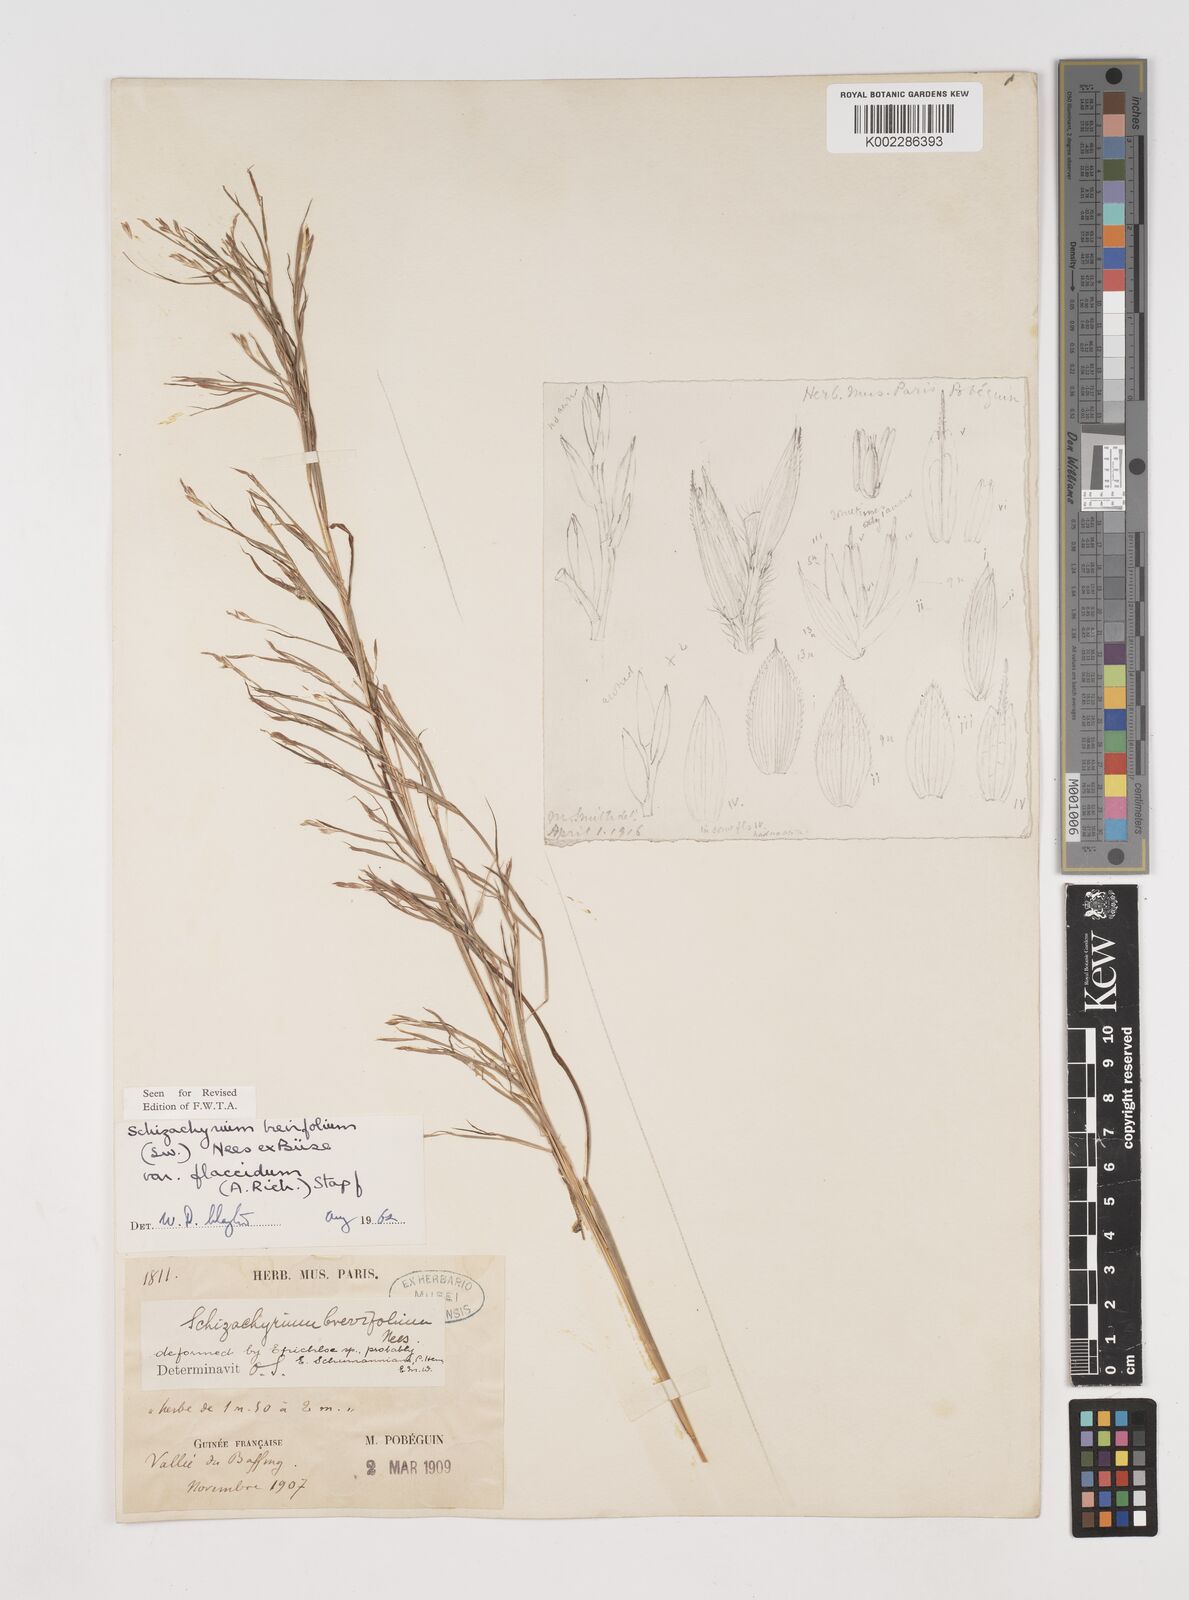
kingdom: Plantae
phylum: Tracheophyta
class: Liliopsida
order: Poales
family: Poaceae
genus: Schizachyrium
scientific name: Schizachyrium brevifolium
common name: Serillo dulce
